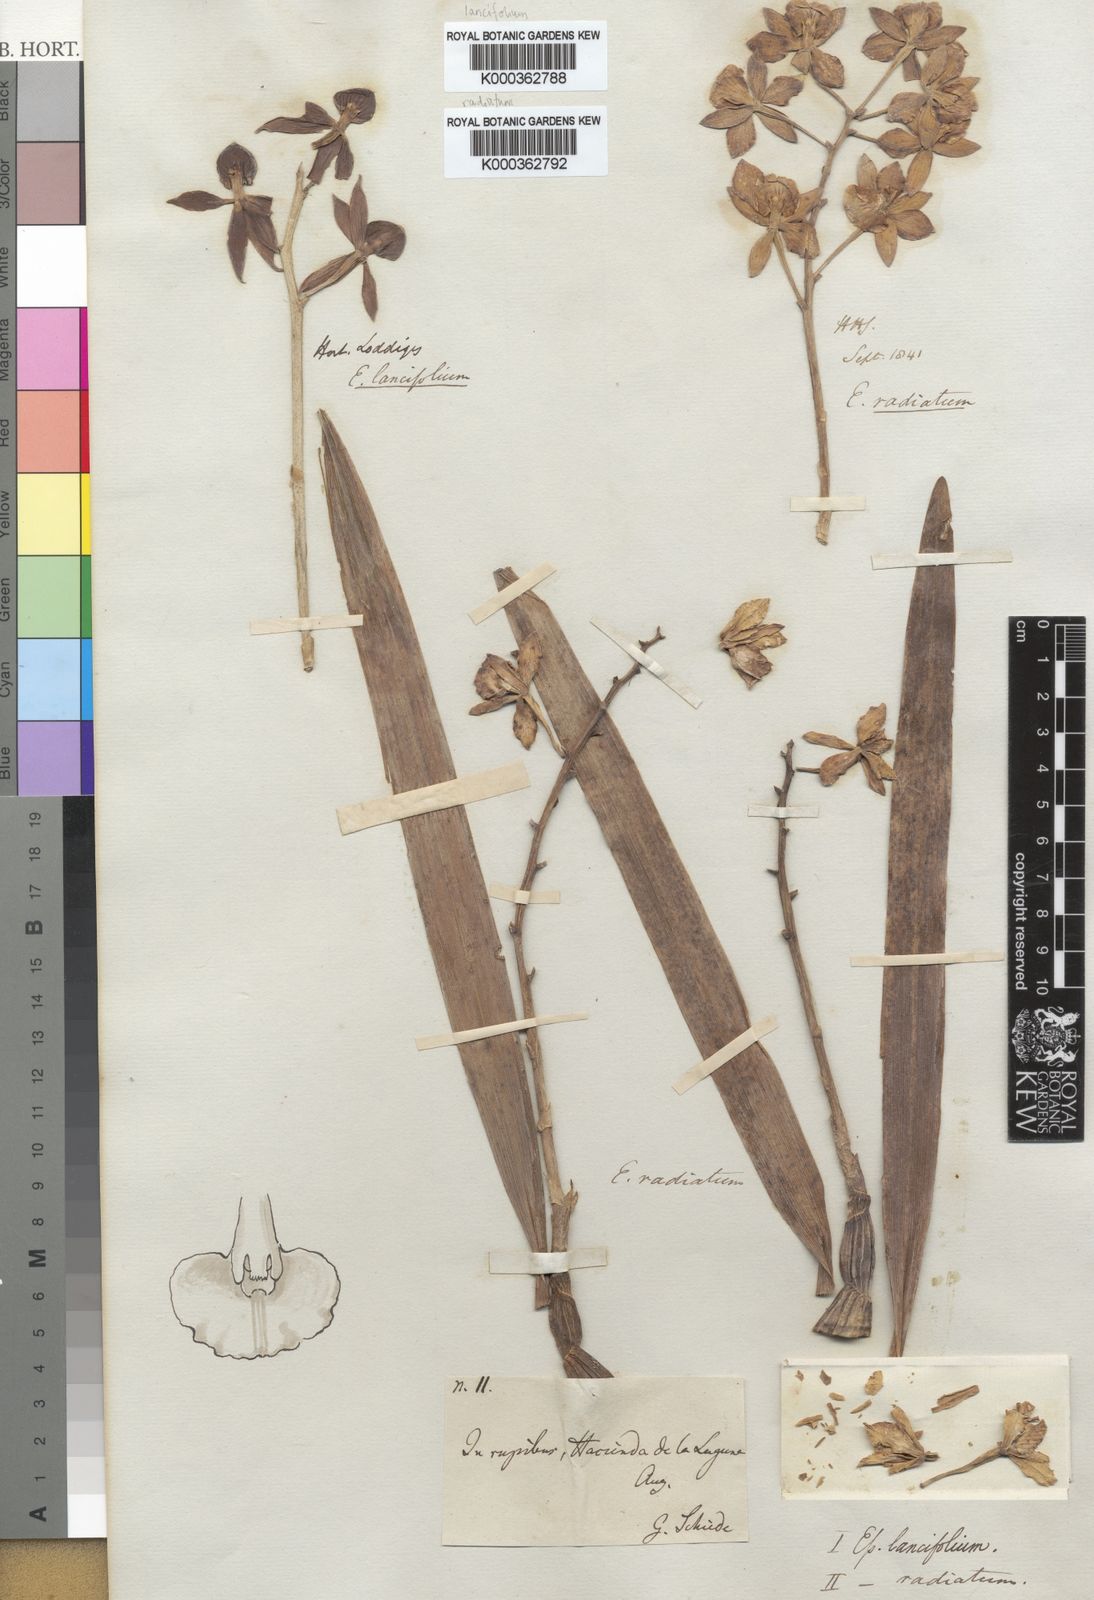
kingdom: Plantae
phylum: Tracheophyta
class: Liliopsida
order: Asparagales
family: Orchidaceae
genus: Prosthechea
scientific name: Prosthechea radiata
